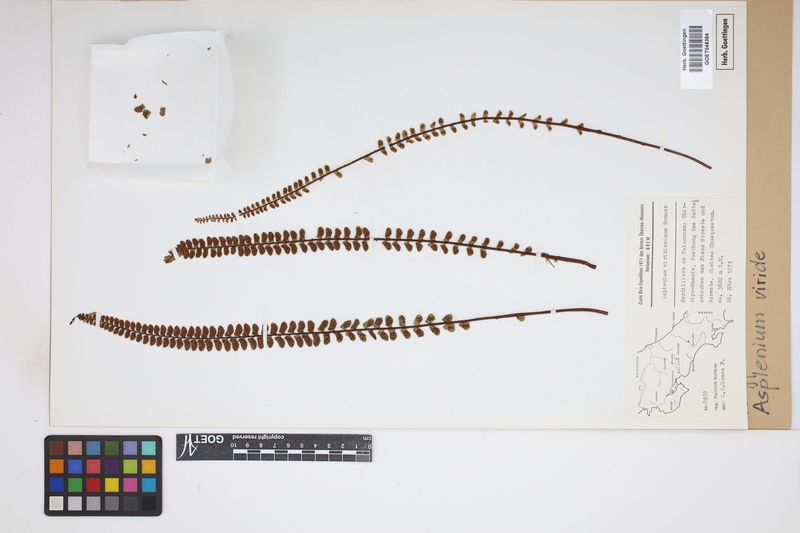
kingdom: Plantae
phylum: Tracheophyta
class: Polypodiopsida
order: Polypodiales
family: Aspleniaceae
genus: Asplenium
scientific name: Asplenium viride
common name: Green spleenwort
